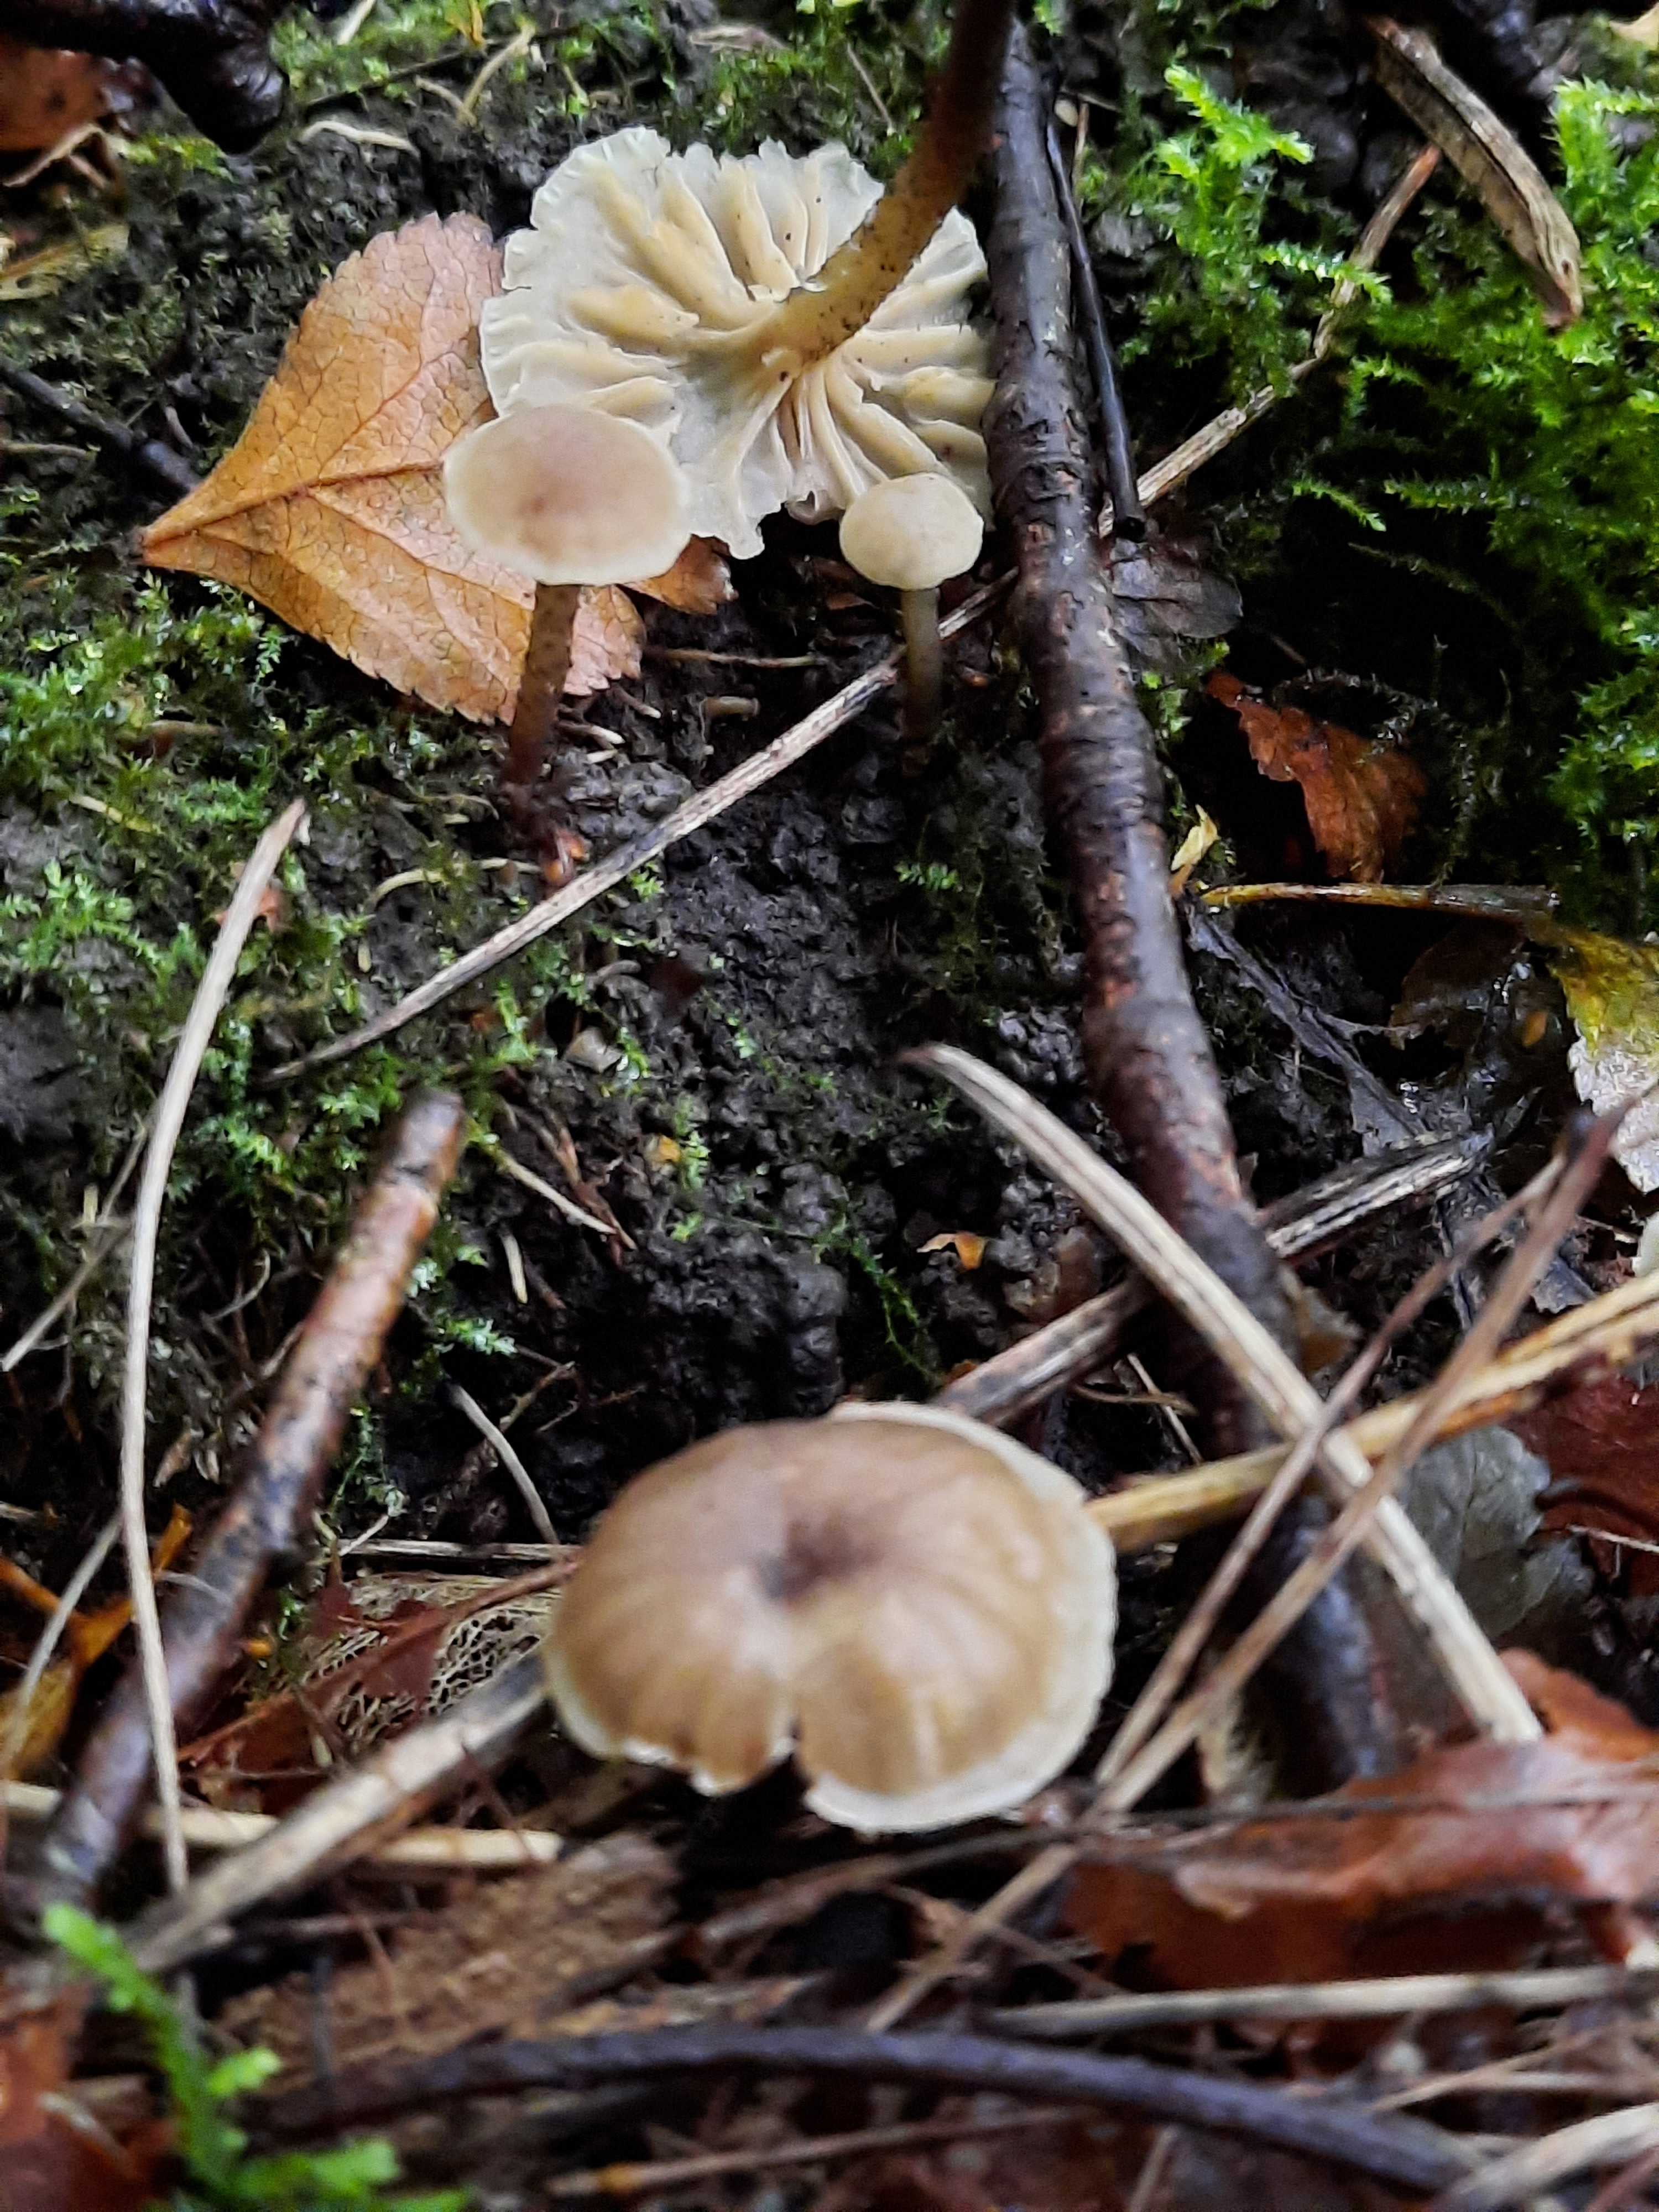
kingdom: Fungi
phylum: Basidiomycota
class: Agaricomycetes
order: Agaricales
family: Clavariaceae
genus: Hodophilus
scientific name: Hodophilus
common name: kratvokshat
